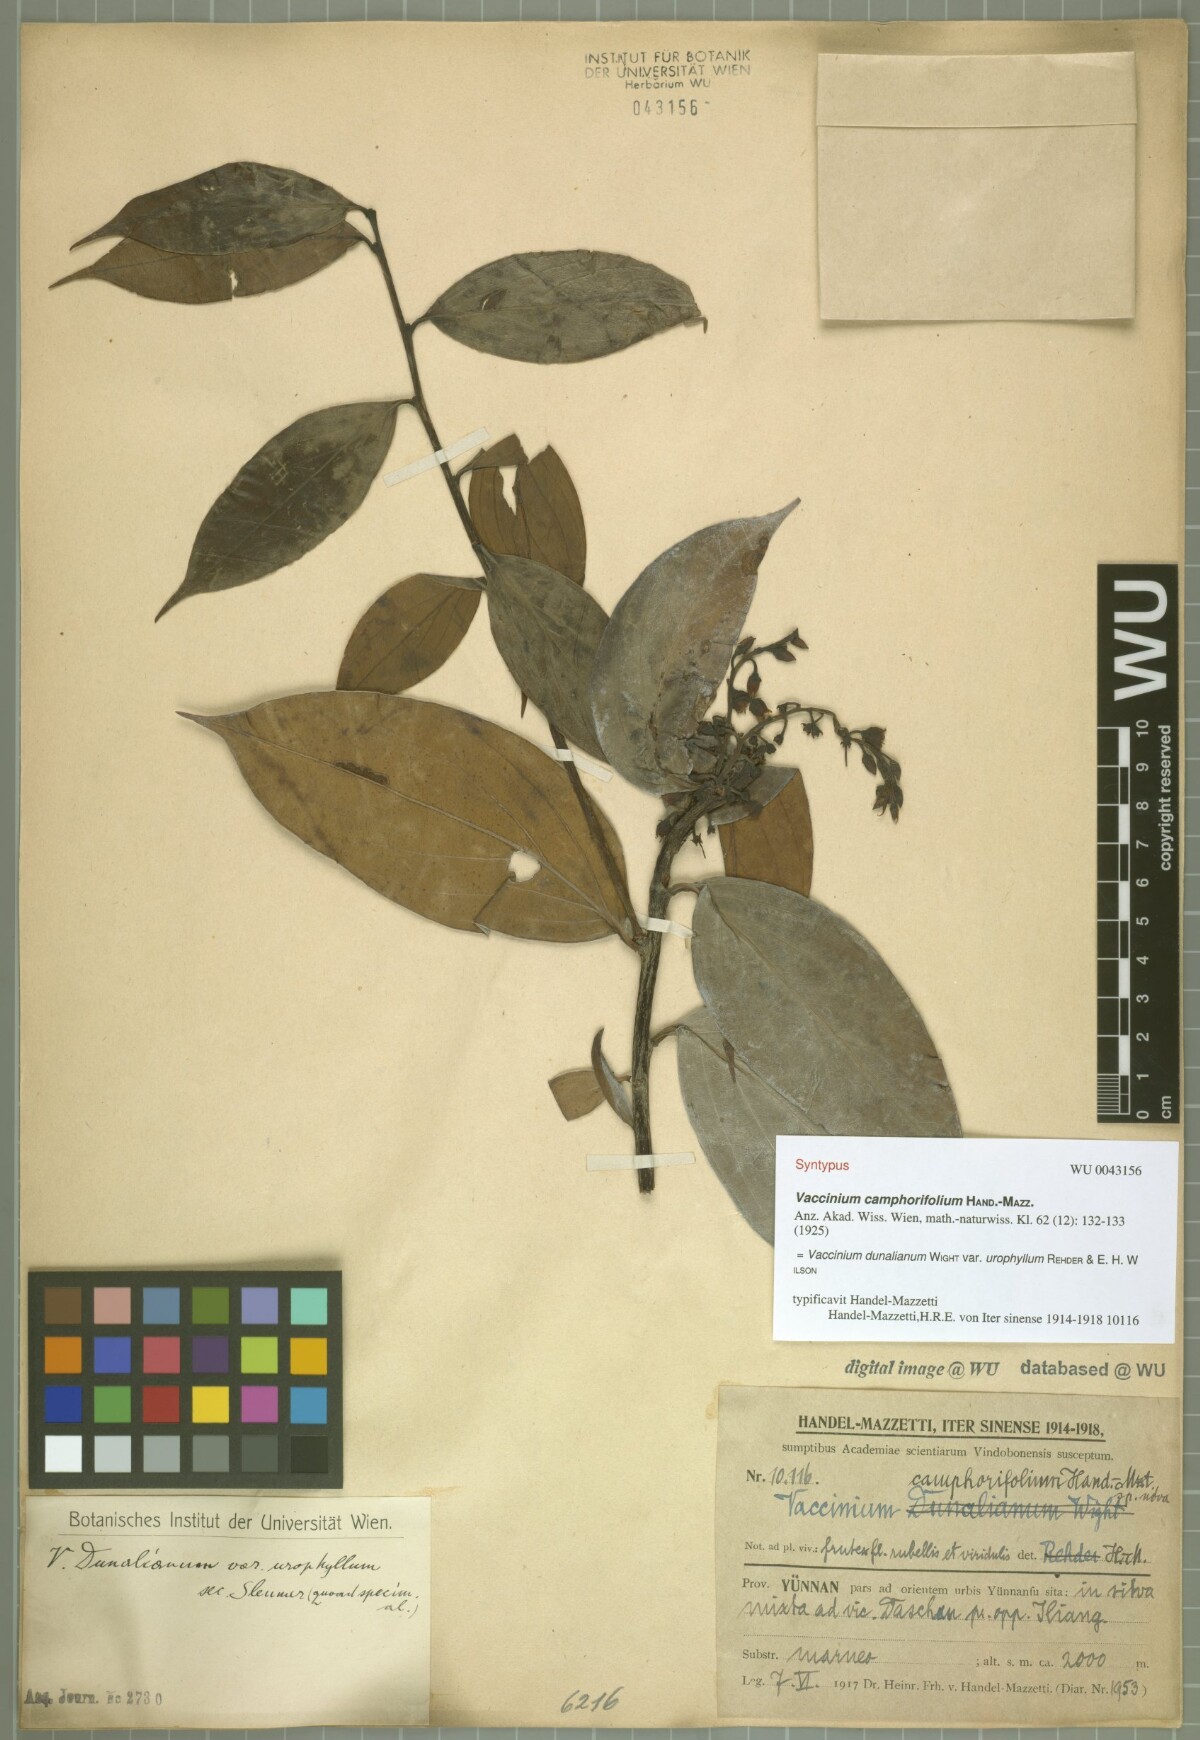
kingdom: Plantae
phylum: Tracheophyta
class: Magnoliopsida
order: Ericales
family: Ericaceae
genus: Vaccinium
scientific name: Vaccinium dunalianum
